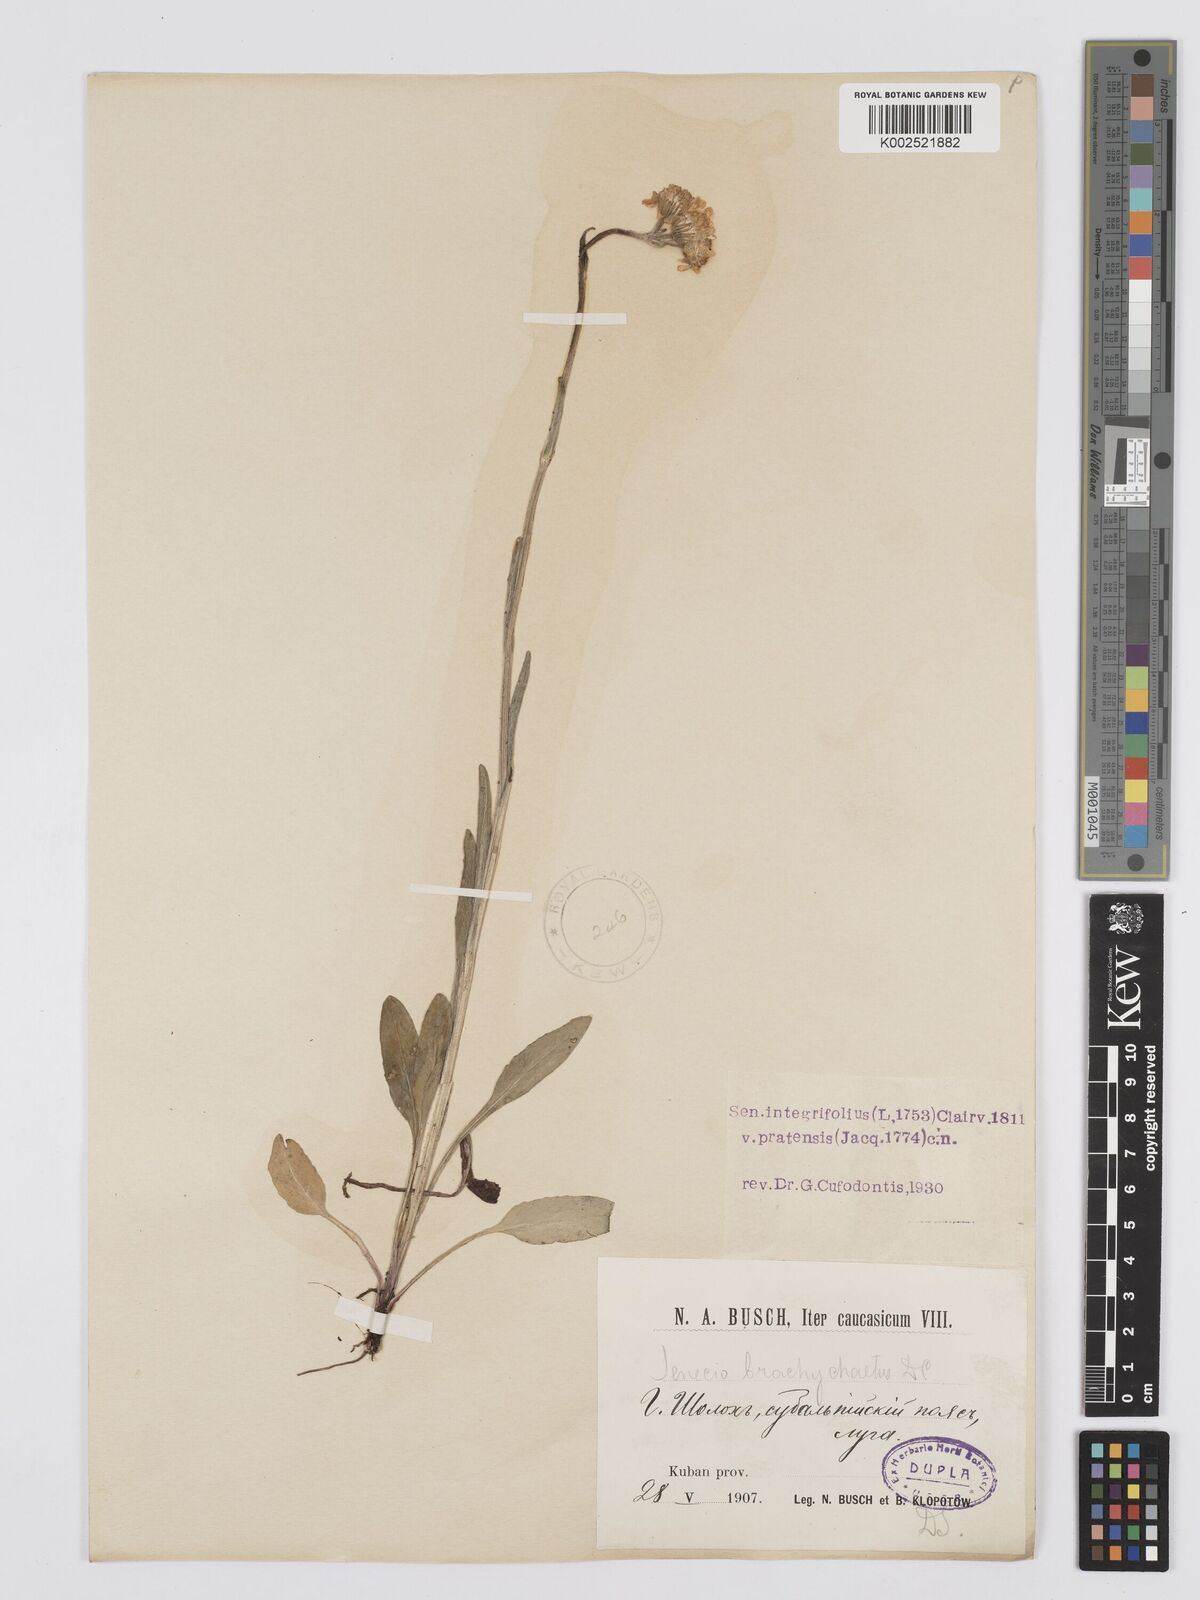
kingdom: Plantae
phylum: Tracheophyta
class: Magnoliopsida
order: Asterales
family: Asteraceae
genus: Tephroseris
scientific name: Tephroseris cladobotrys
